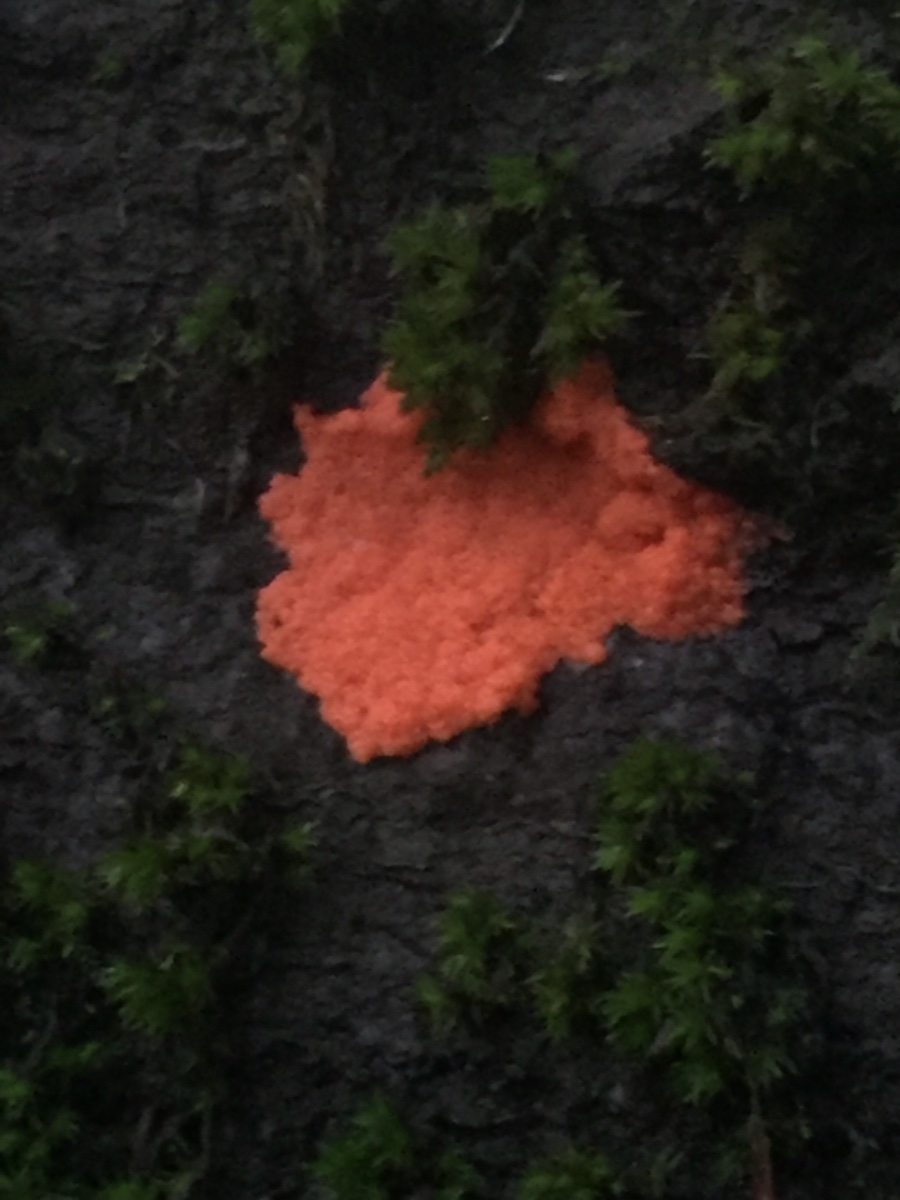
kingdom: Protozoa
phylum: Mycetozoa
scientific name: Mycetozoa
